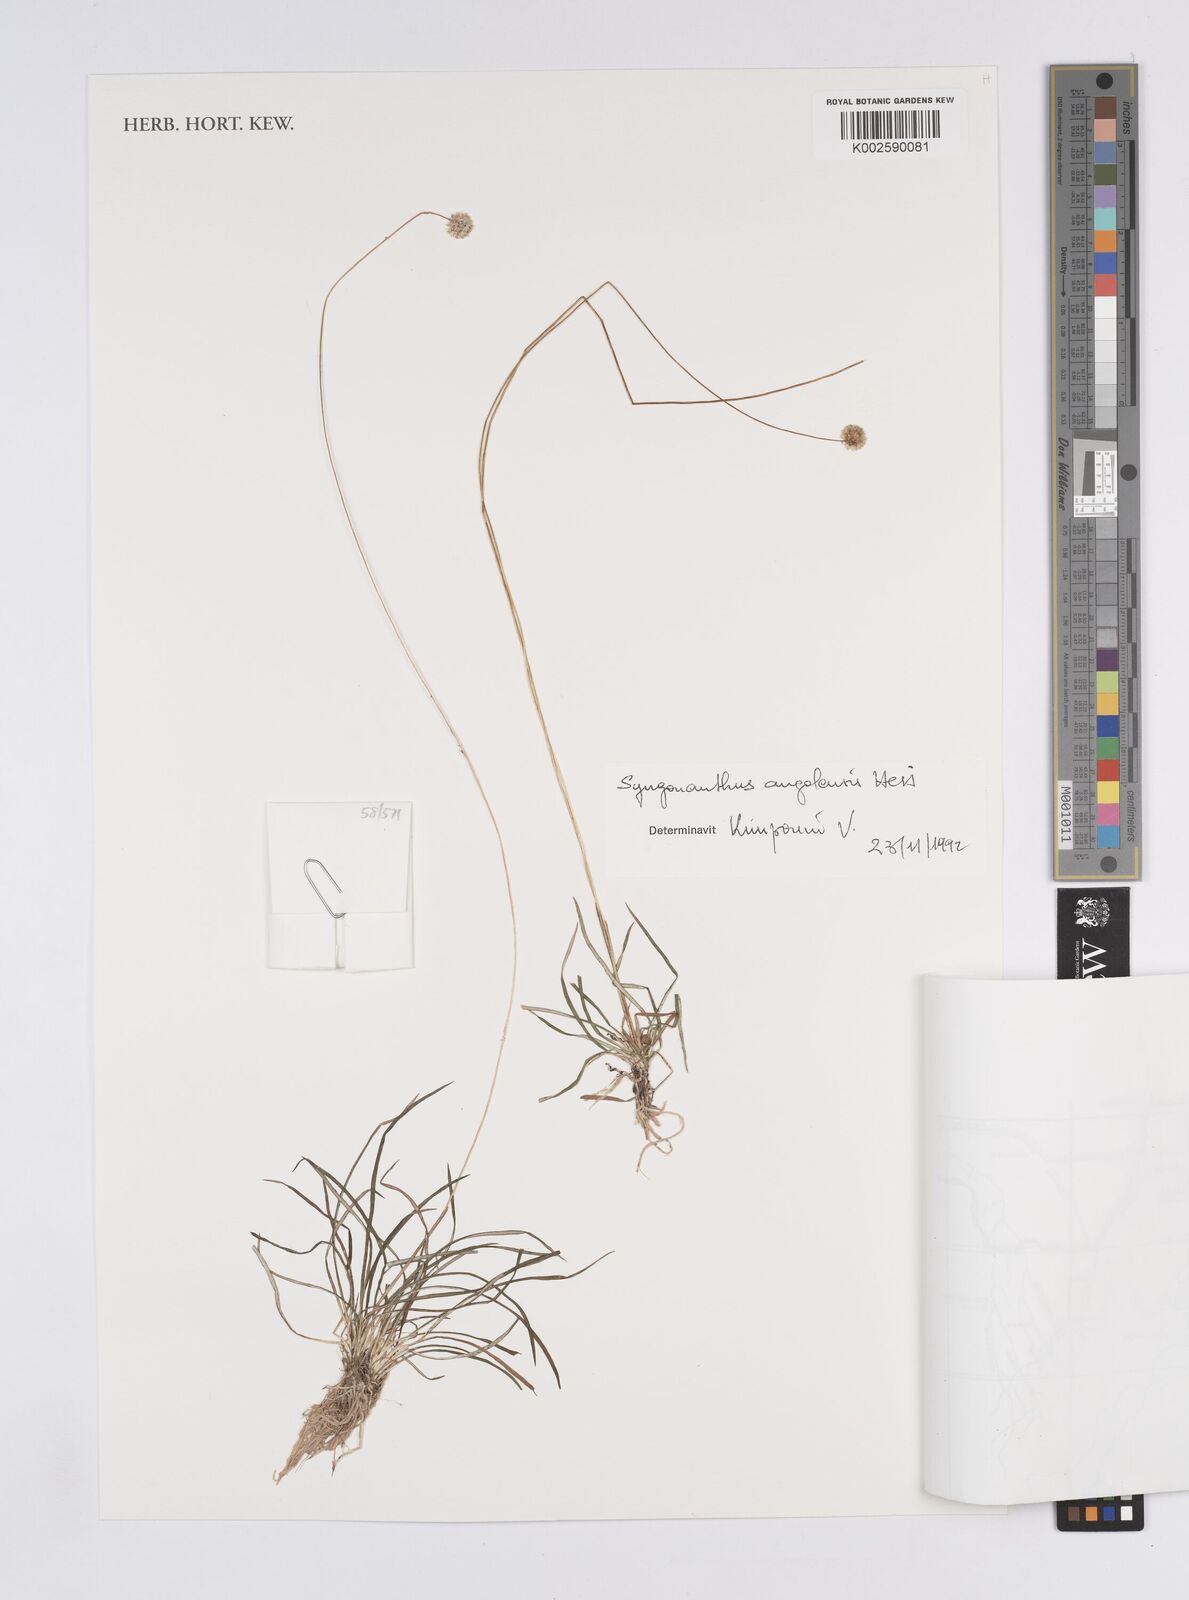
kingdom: Plantae
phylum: Tracheophyta
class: Liliopsida
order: Poales
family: Eriocaulaceae
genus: Syngonanthus
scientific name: Syngonanthus angolensis
